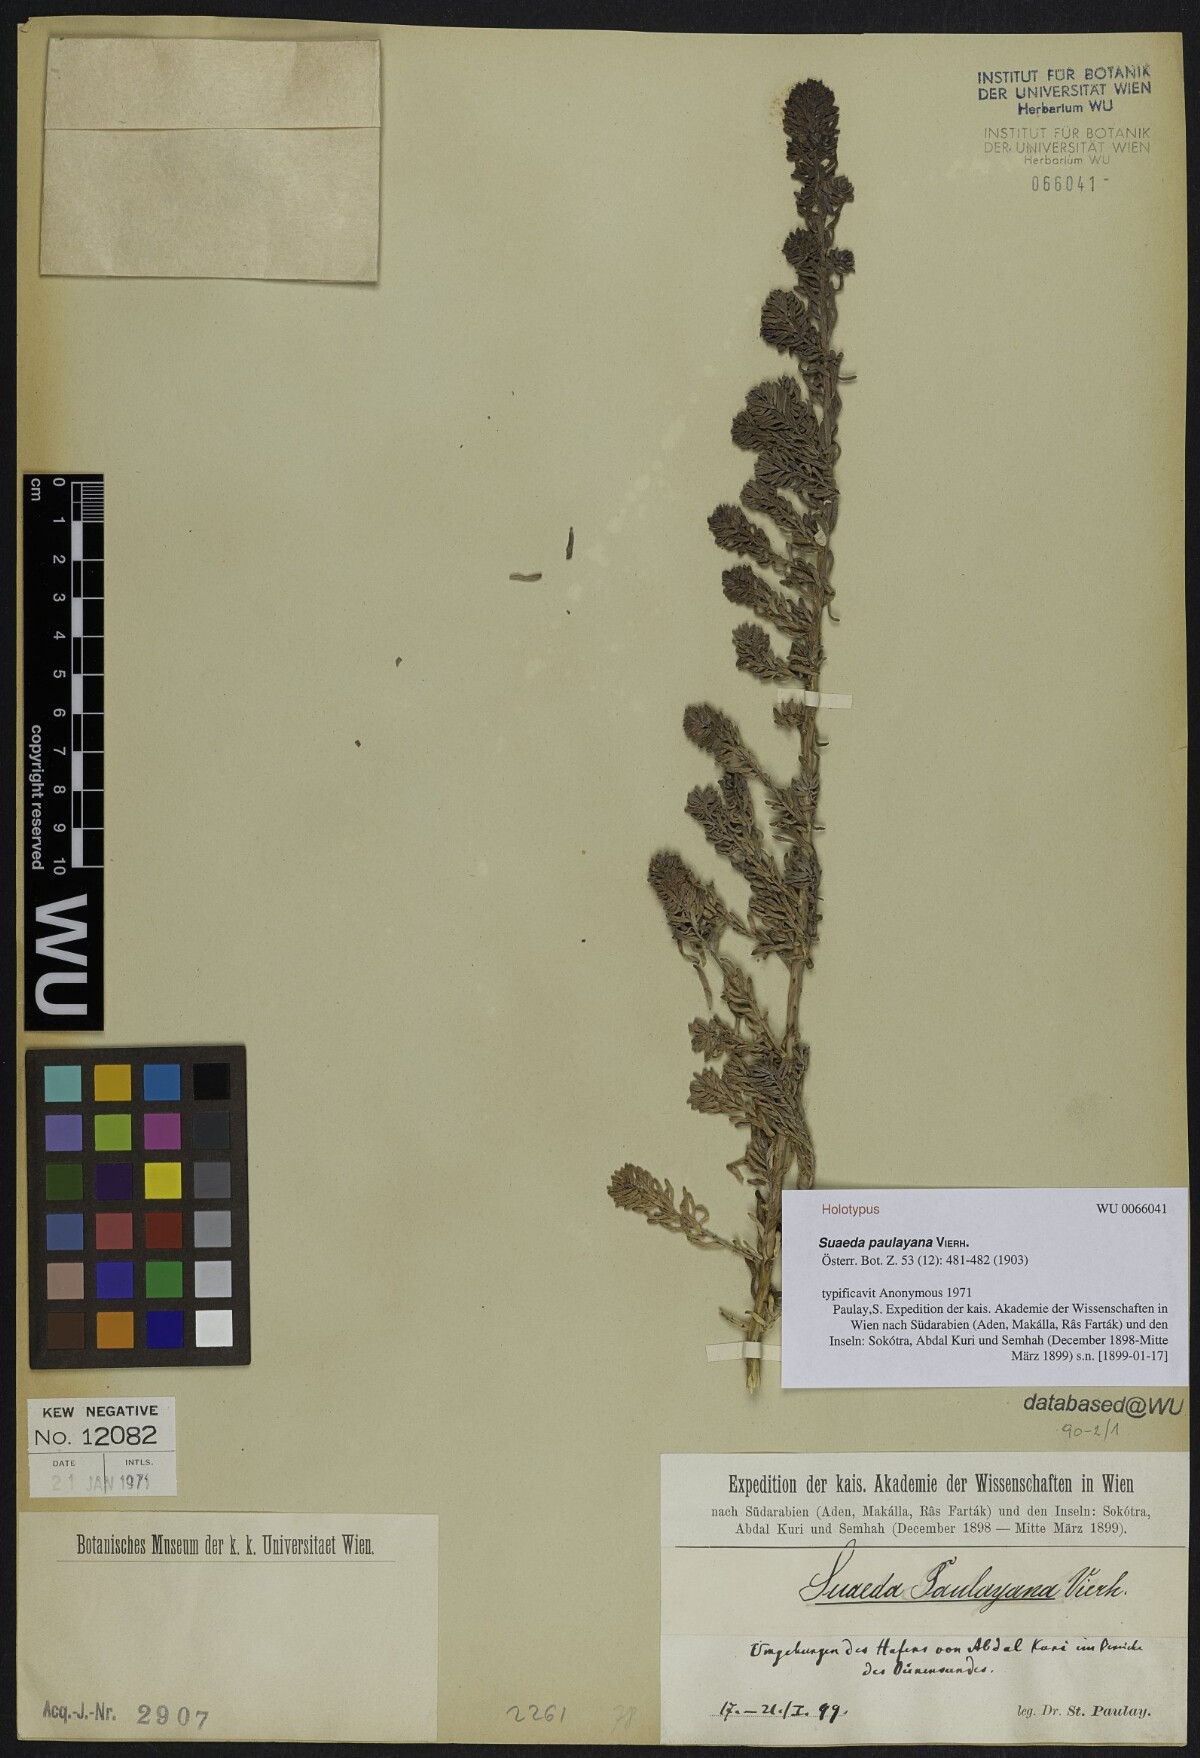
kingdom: Plantae
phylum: Tracheophyta
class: Magnoliopsida
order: Caryophyllales
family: Amaranthaceae
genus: Suaeda
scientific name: Suaeda vermiculata
